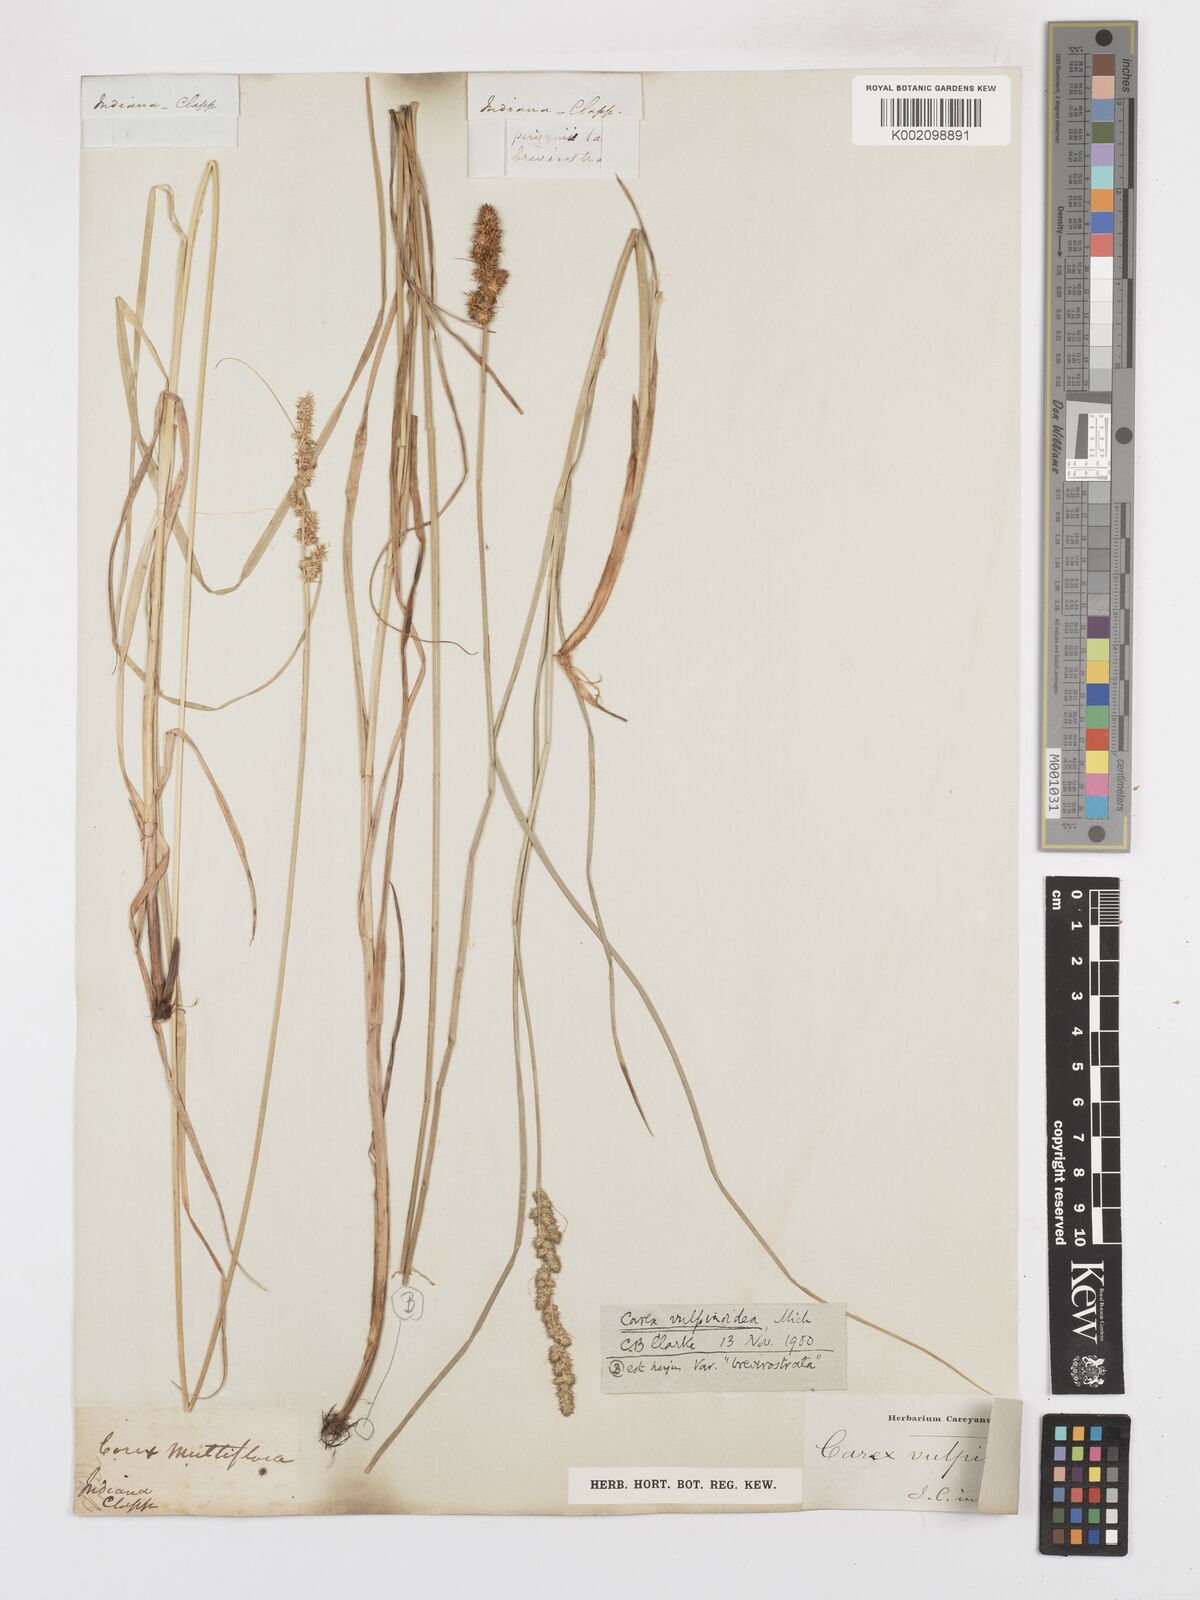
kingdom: Plantae
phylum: Tracheophyta
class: Liliopsida
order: Poales
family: Cyperaceae
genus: Carex
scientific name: Carex vulpinoidea
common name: American fox-sedge
